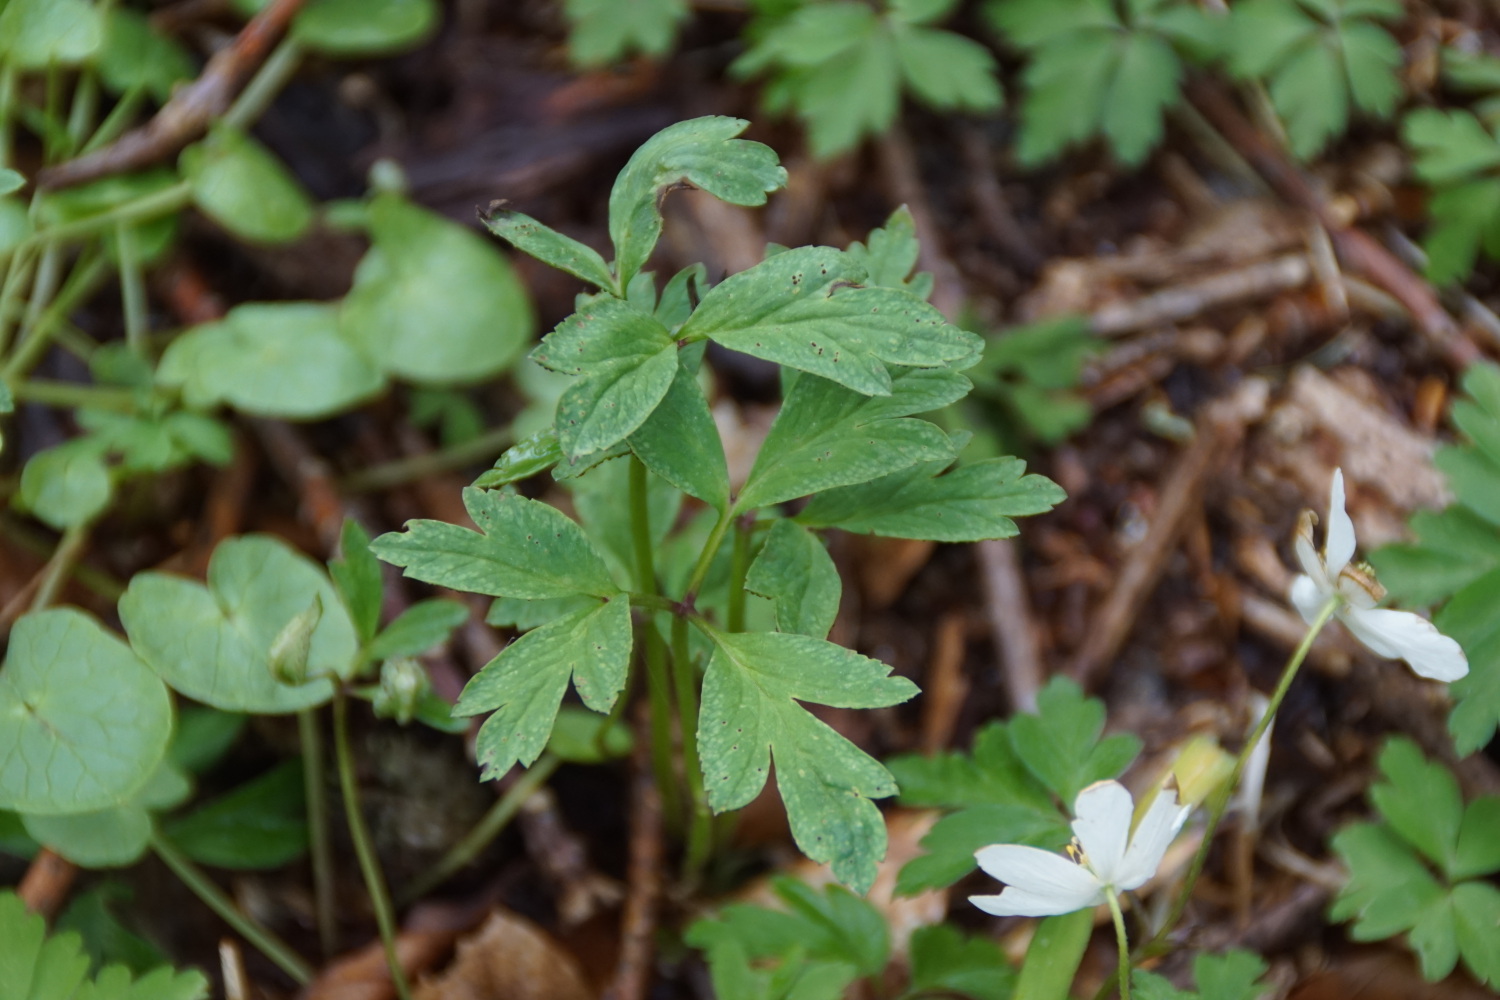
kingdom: Fungi
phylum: Basidiomycota
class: Pucciniomycetes
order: Pucciniales
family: Tranzscheliaceae
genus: Tranzschelia
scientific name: Tranzschelia anemones
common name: anemone-knæksporerust
